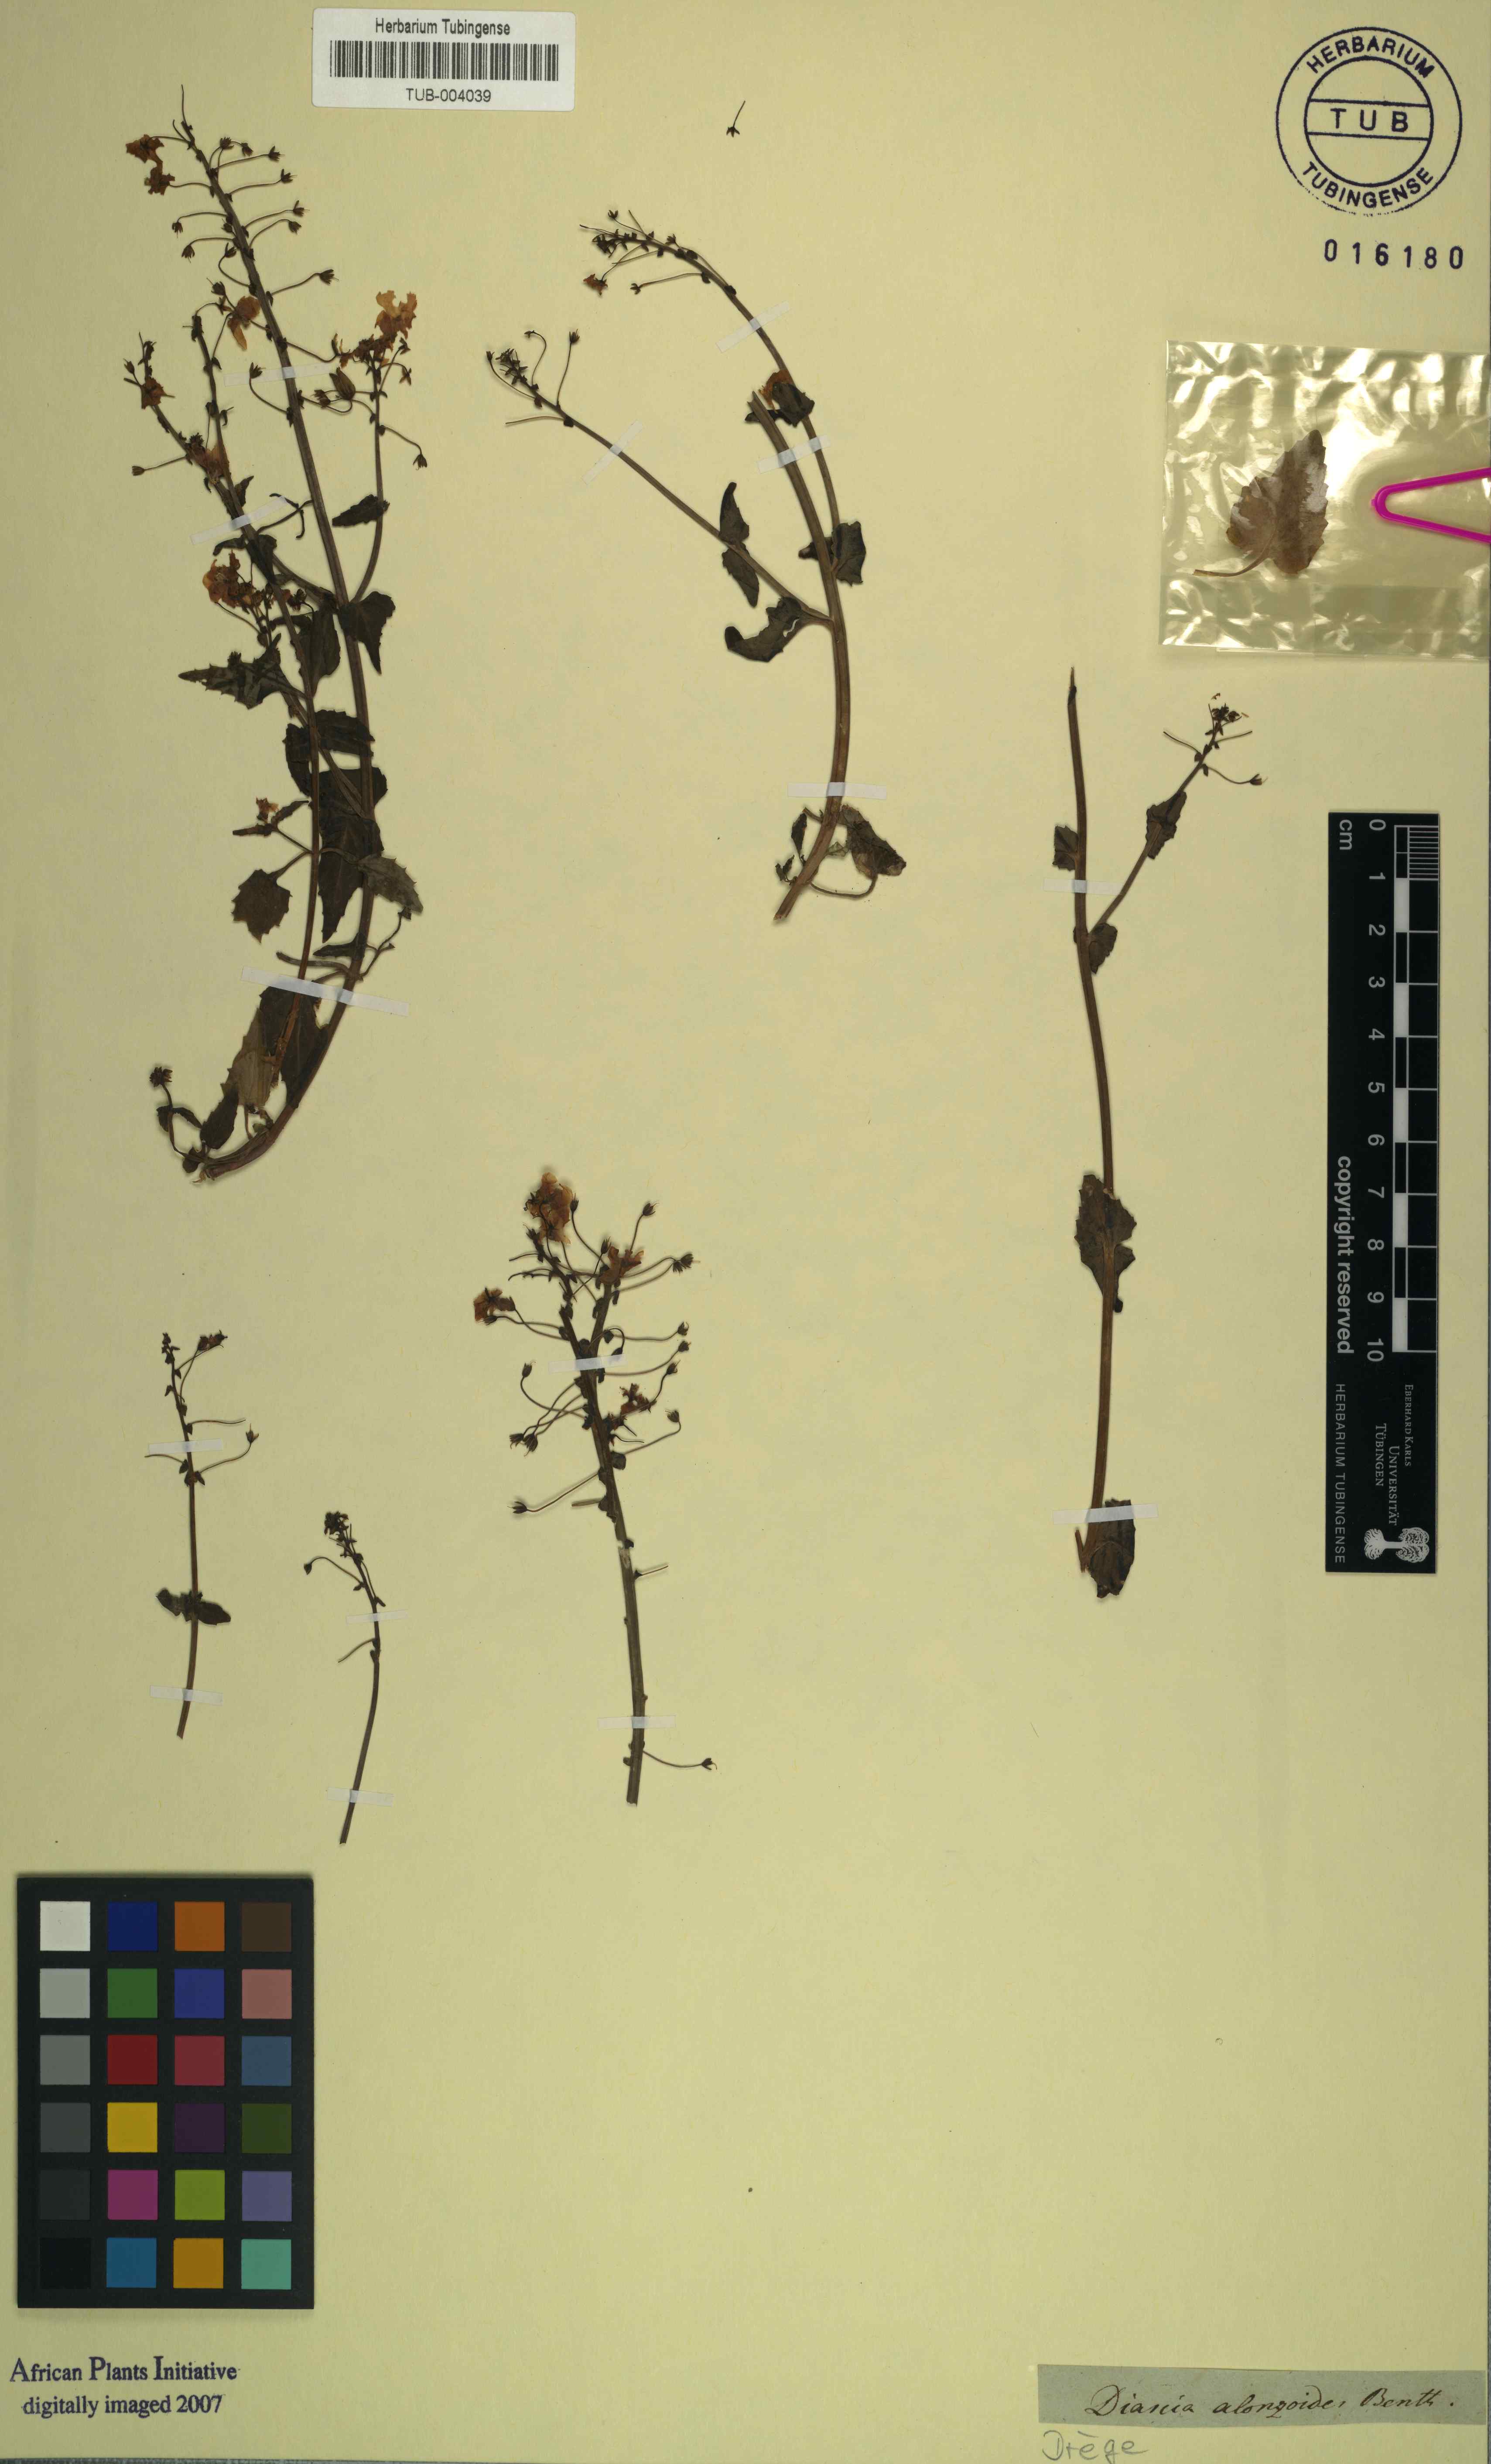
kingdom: Plantae
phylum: Tracheophyta
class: Magnoliopsida
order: Lamiales
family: Scrophulariaceae
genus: Diascia
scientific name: Diascia alonsooides
